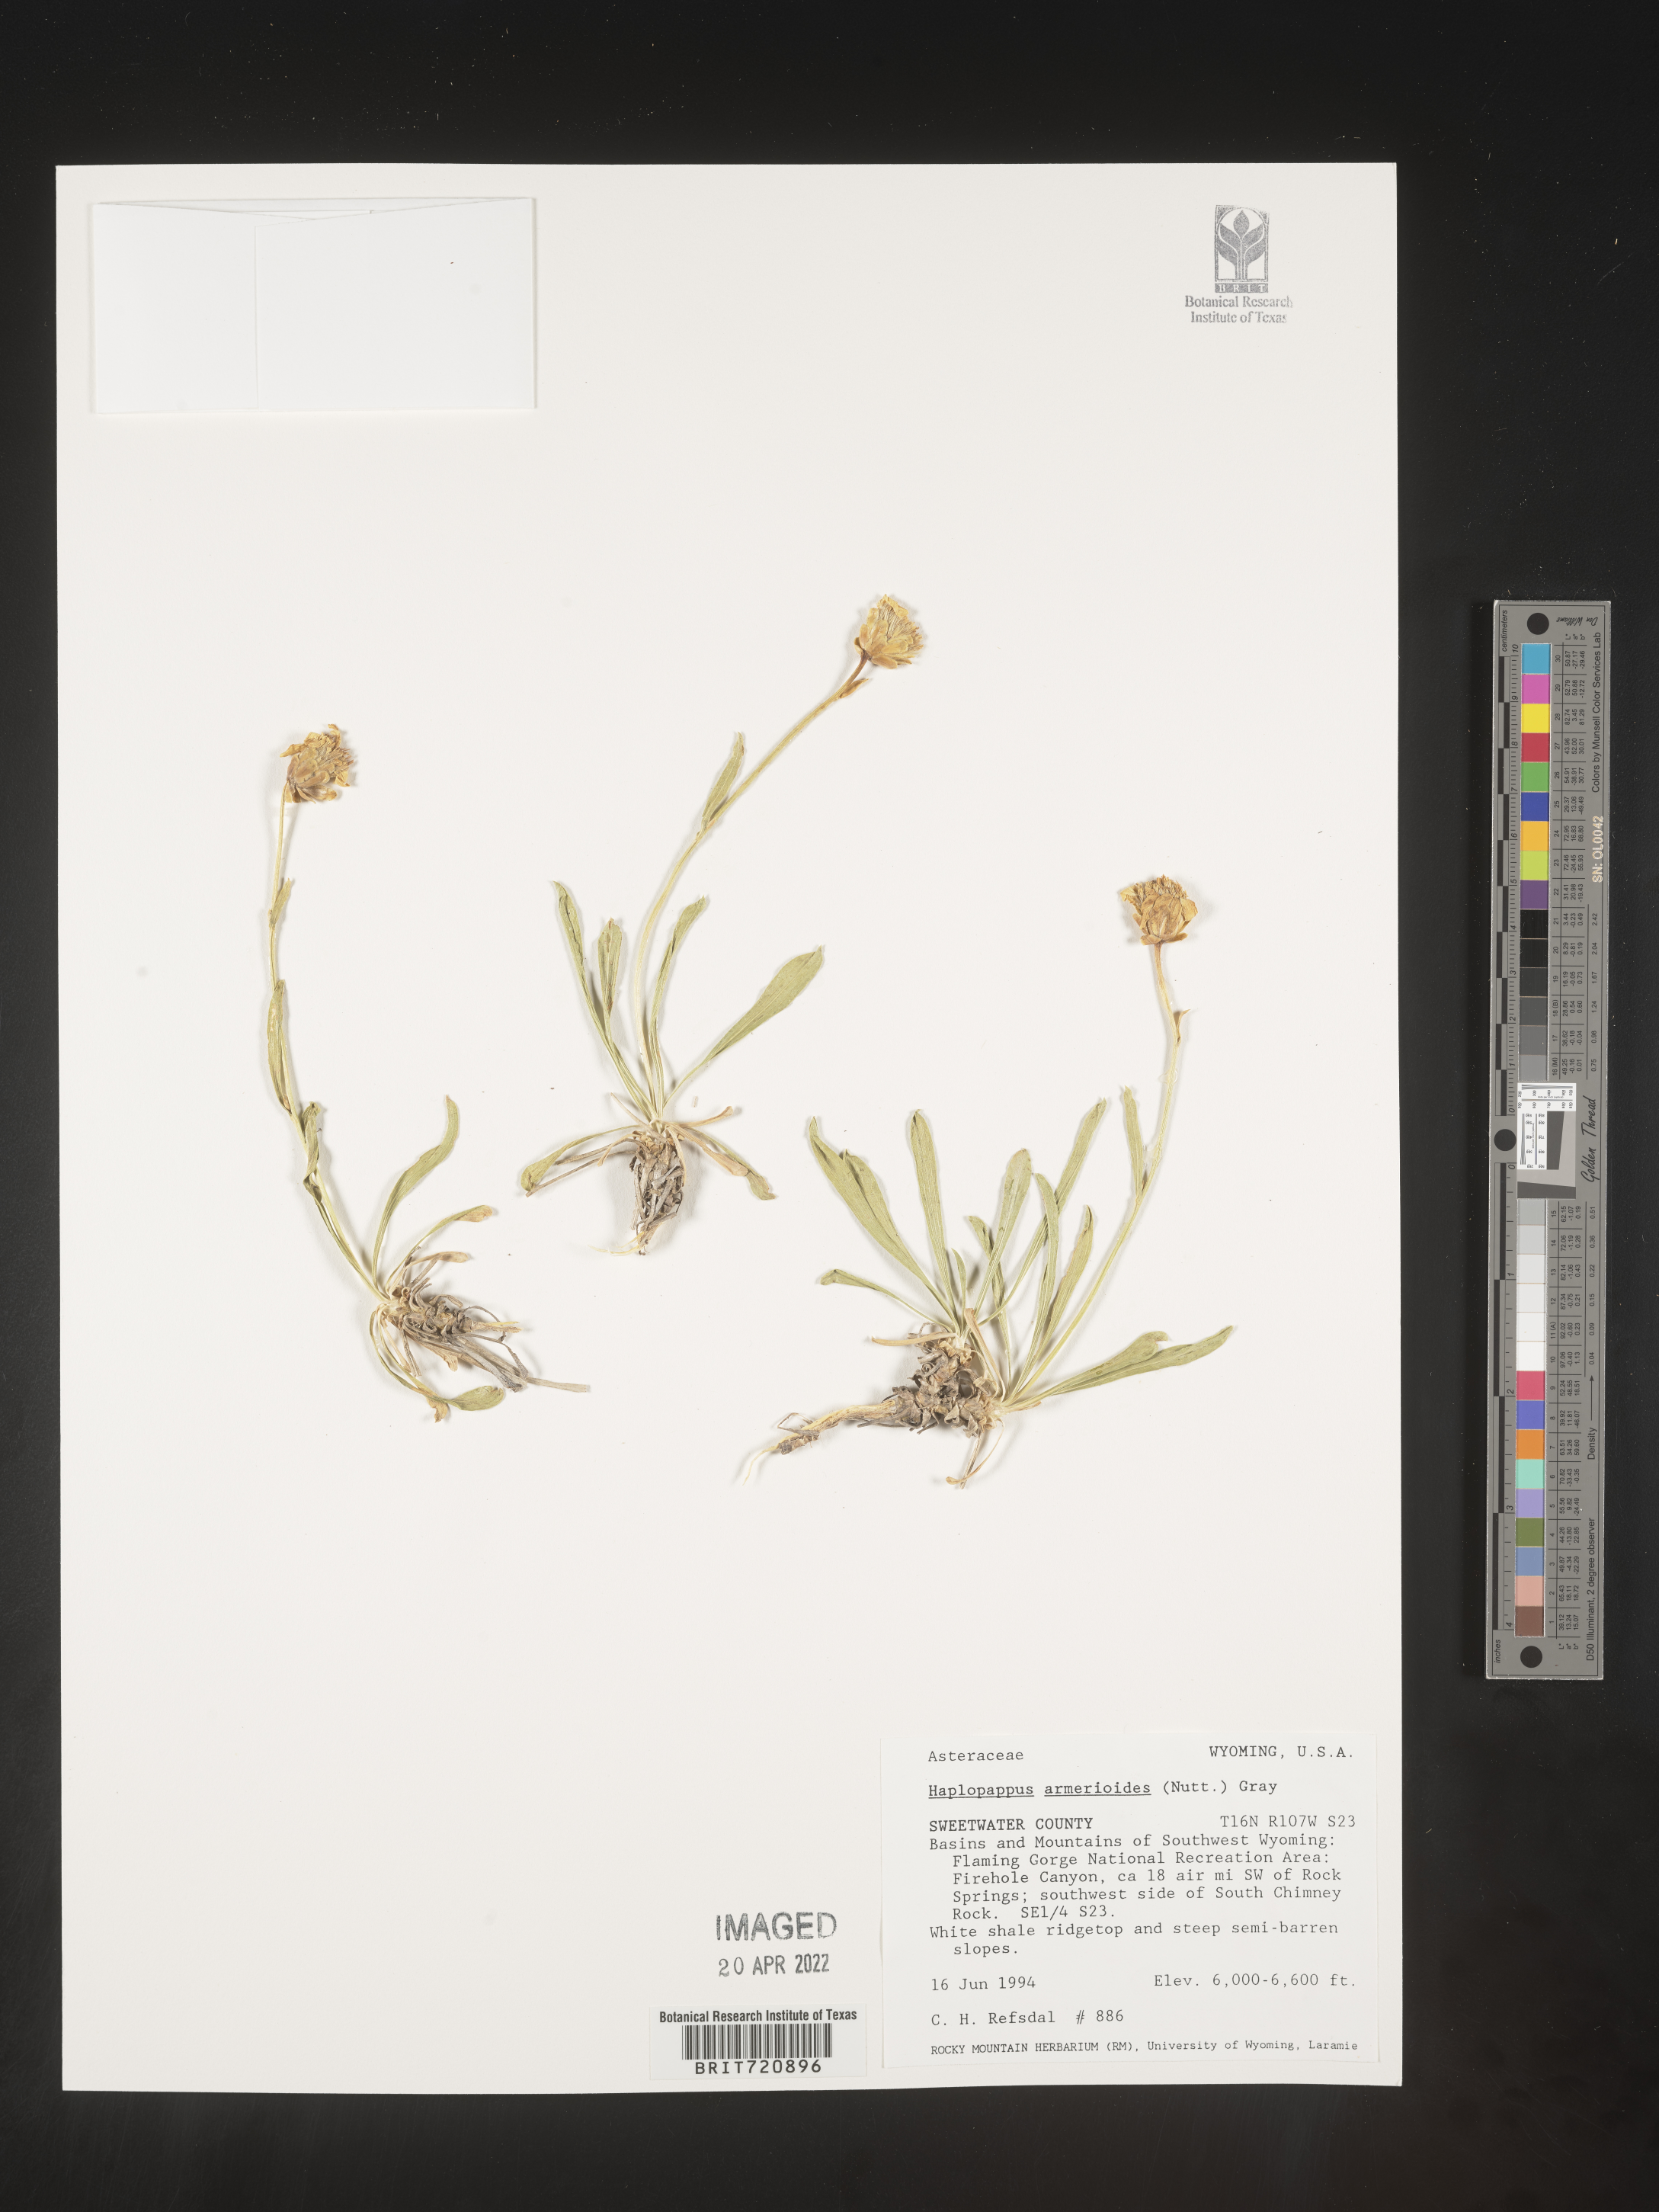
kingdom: Plantae
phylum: Tracheophyta
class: Magnoliopsida
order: Asterales
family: Asteraceae
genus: Haplopappus
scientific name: Haplopappus
